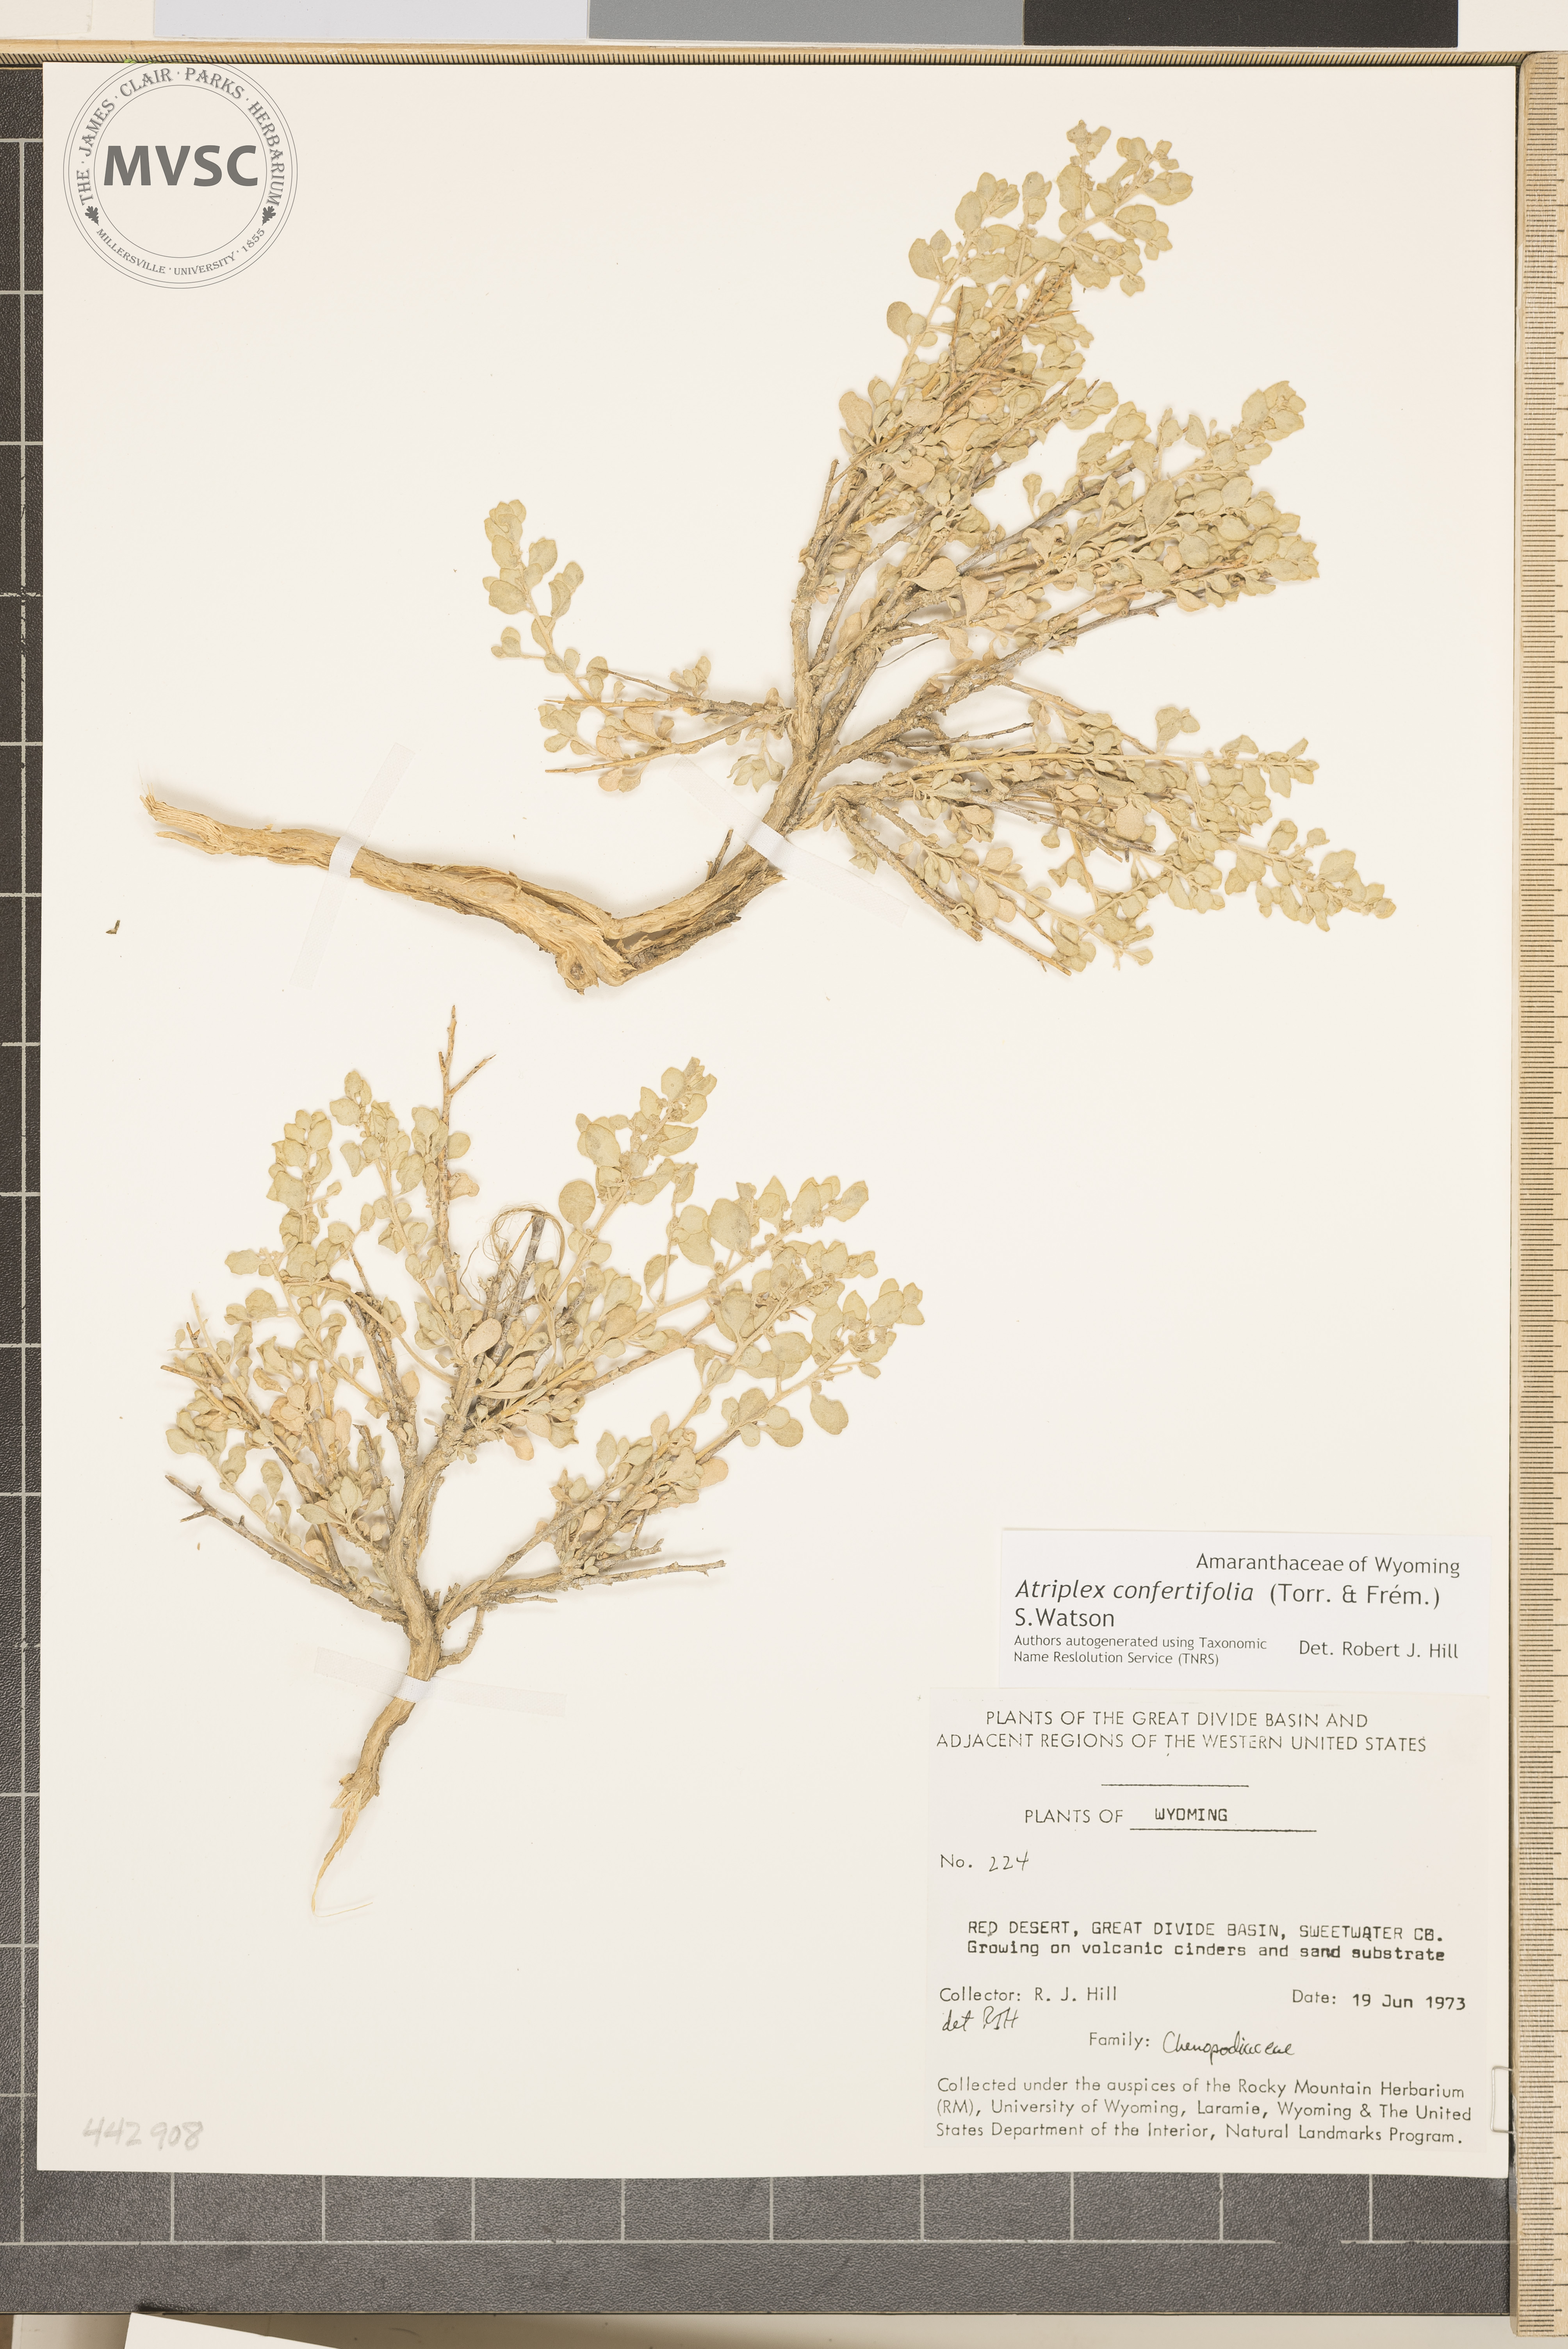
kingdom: Plantae
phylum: Tracheophyta
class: Magnoliopsida
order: Caryophyllales
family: Amaranthaceae
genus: Atriplex
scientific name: Atriplex confertifolia
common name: Shadscale
